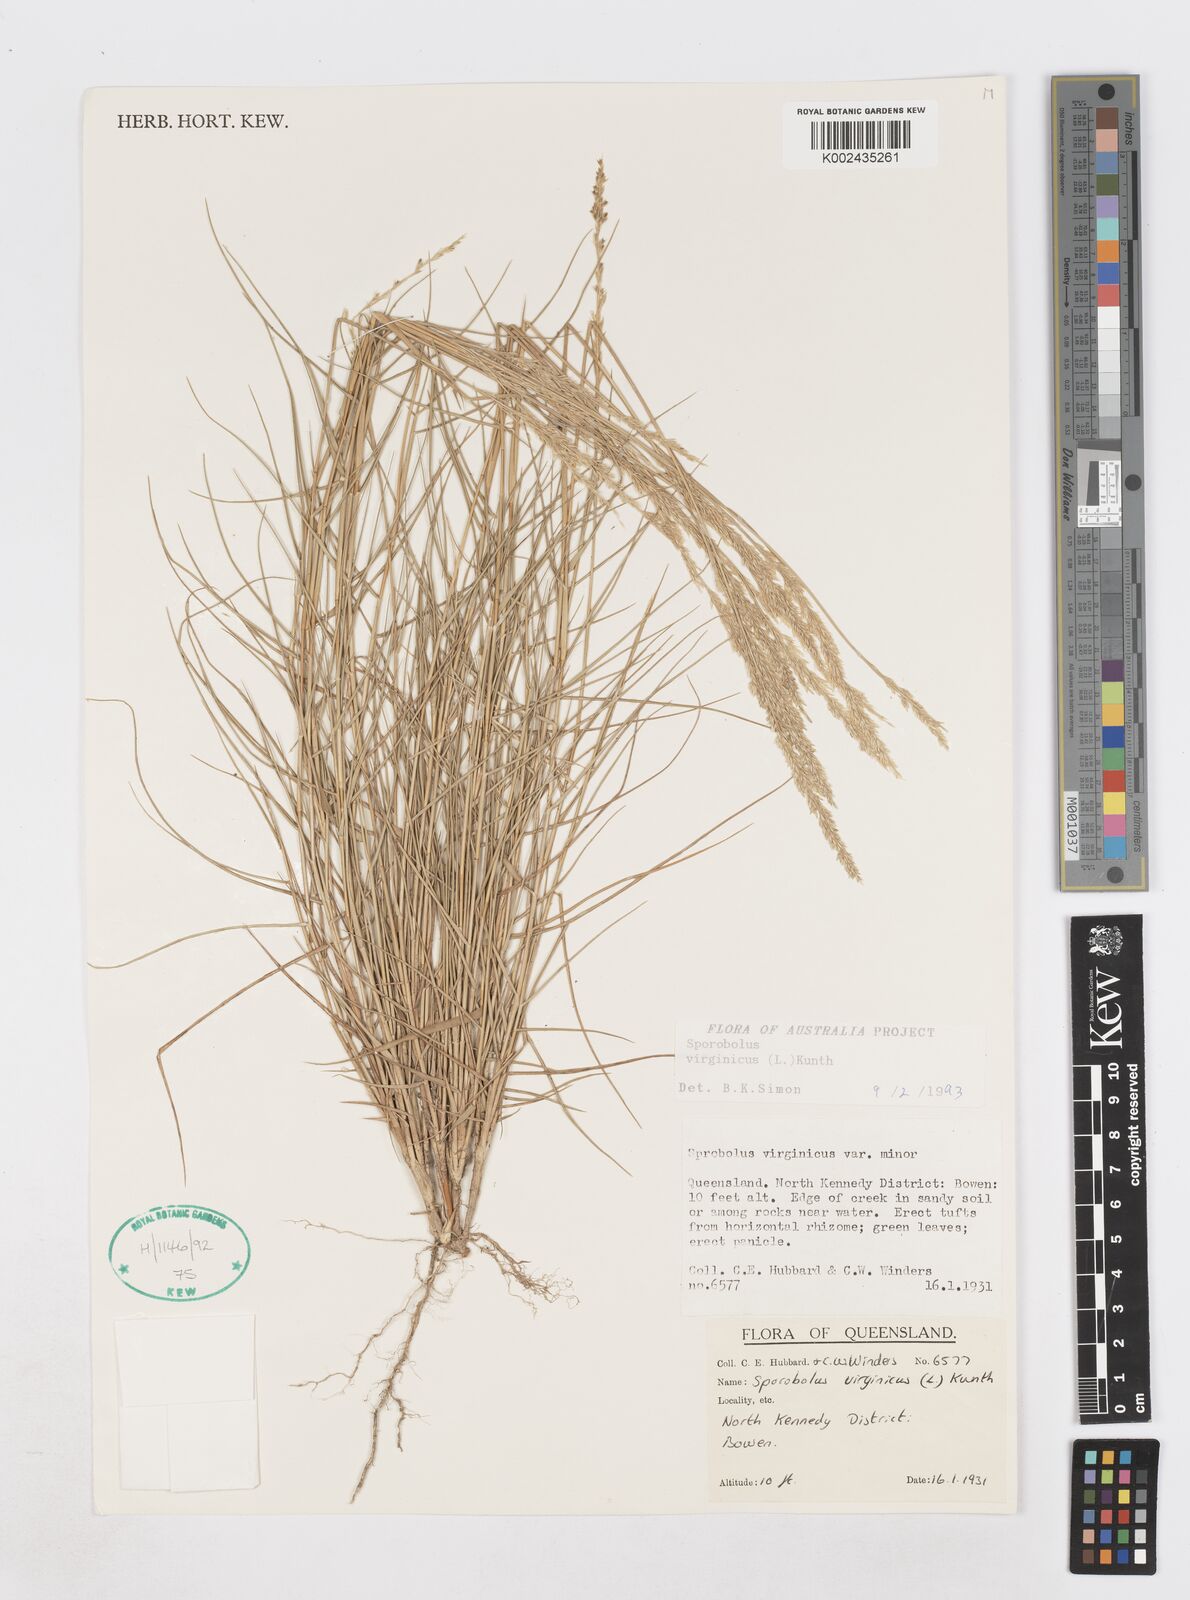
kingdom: Plantae
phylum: Tracheophyta
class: Liliopsida
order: Poales
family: Poaceae
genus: Sporobolus
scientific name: Sporobolus virginicus
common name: Beach dropseed
